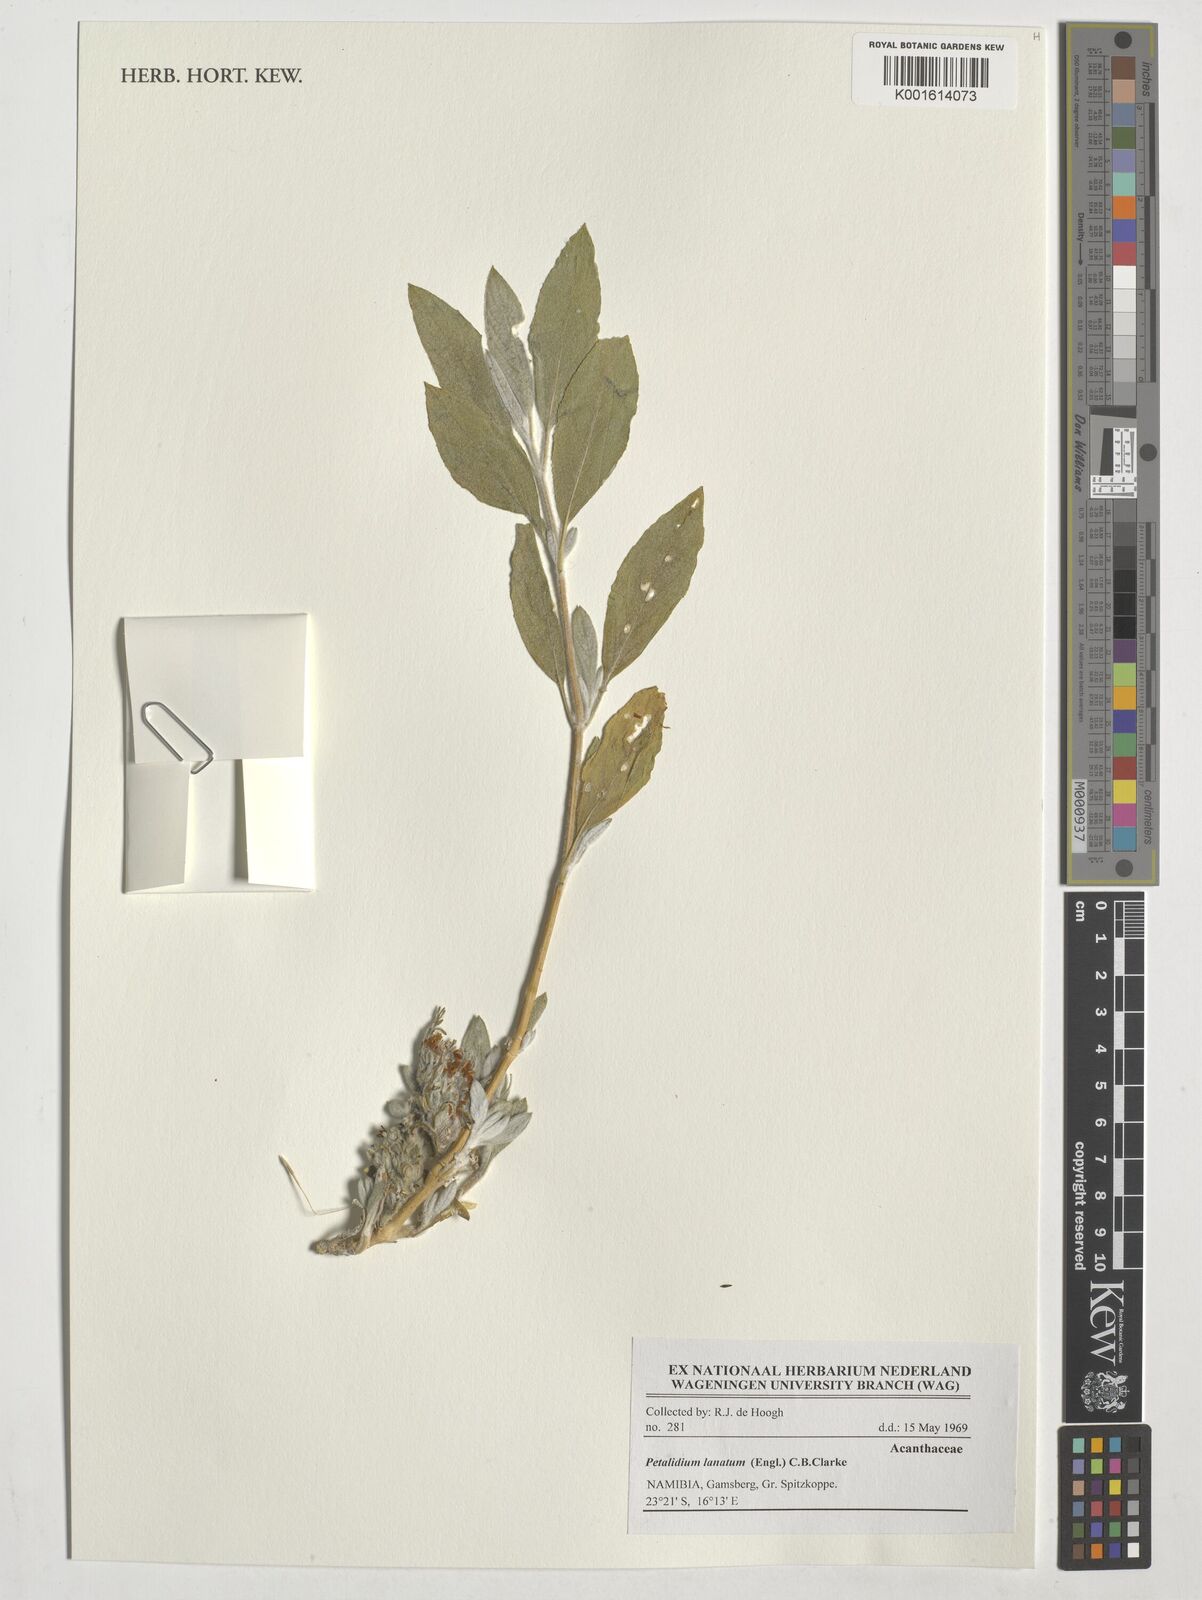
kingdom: Plantae
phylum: Tracheophyta
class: Magnoliopsida
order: Lamiales
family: Acanthaceae
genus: Petalidium
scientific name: Petalidium lanatum
